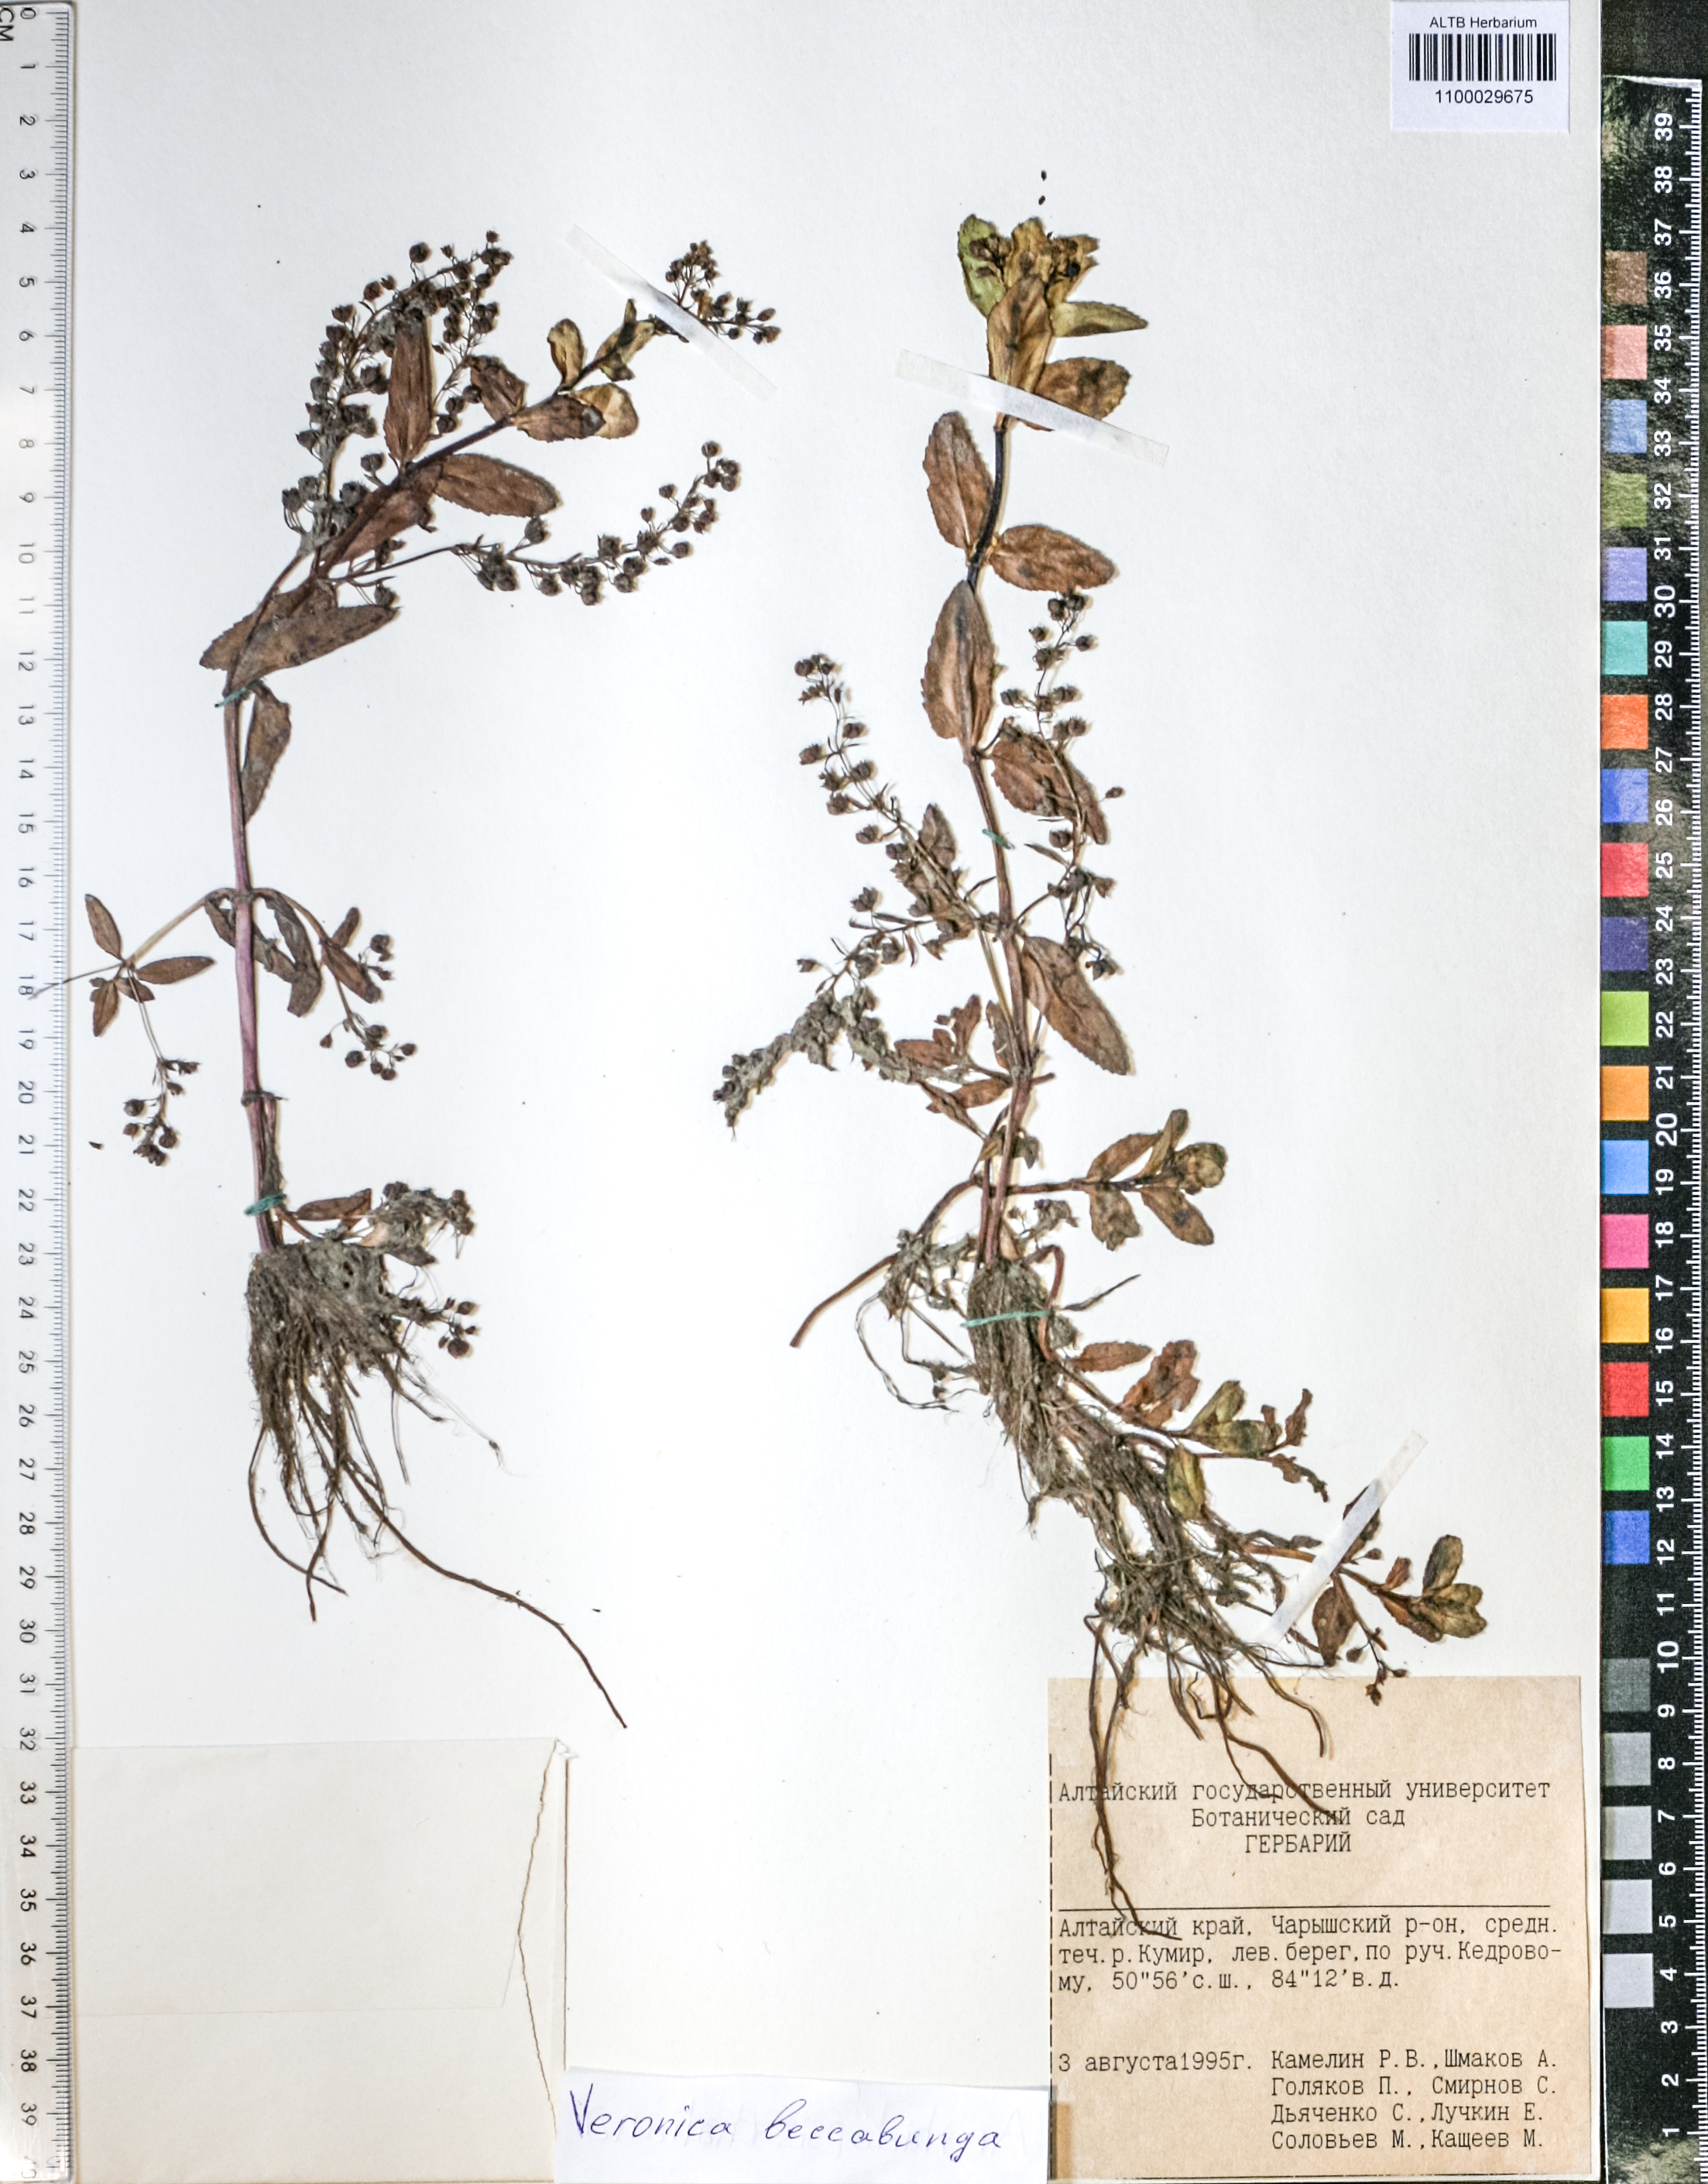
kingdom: Plantae
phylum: Tracheophyta
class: Magnoliopsida
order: Lamiales
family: Plantaginaceae
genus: Veronica
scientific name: Veronica beccabunga
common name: Brooklime
